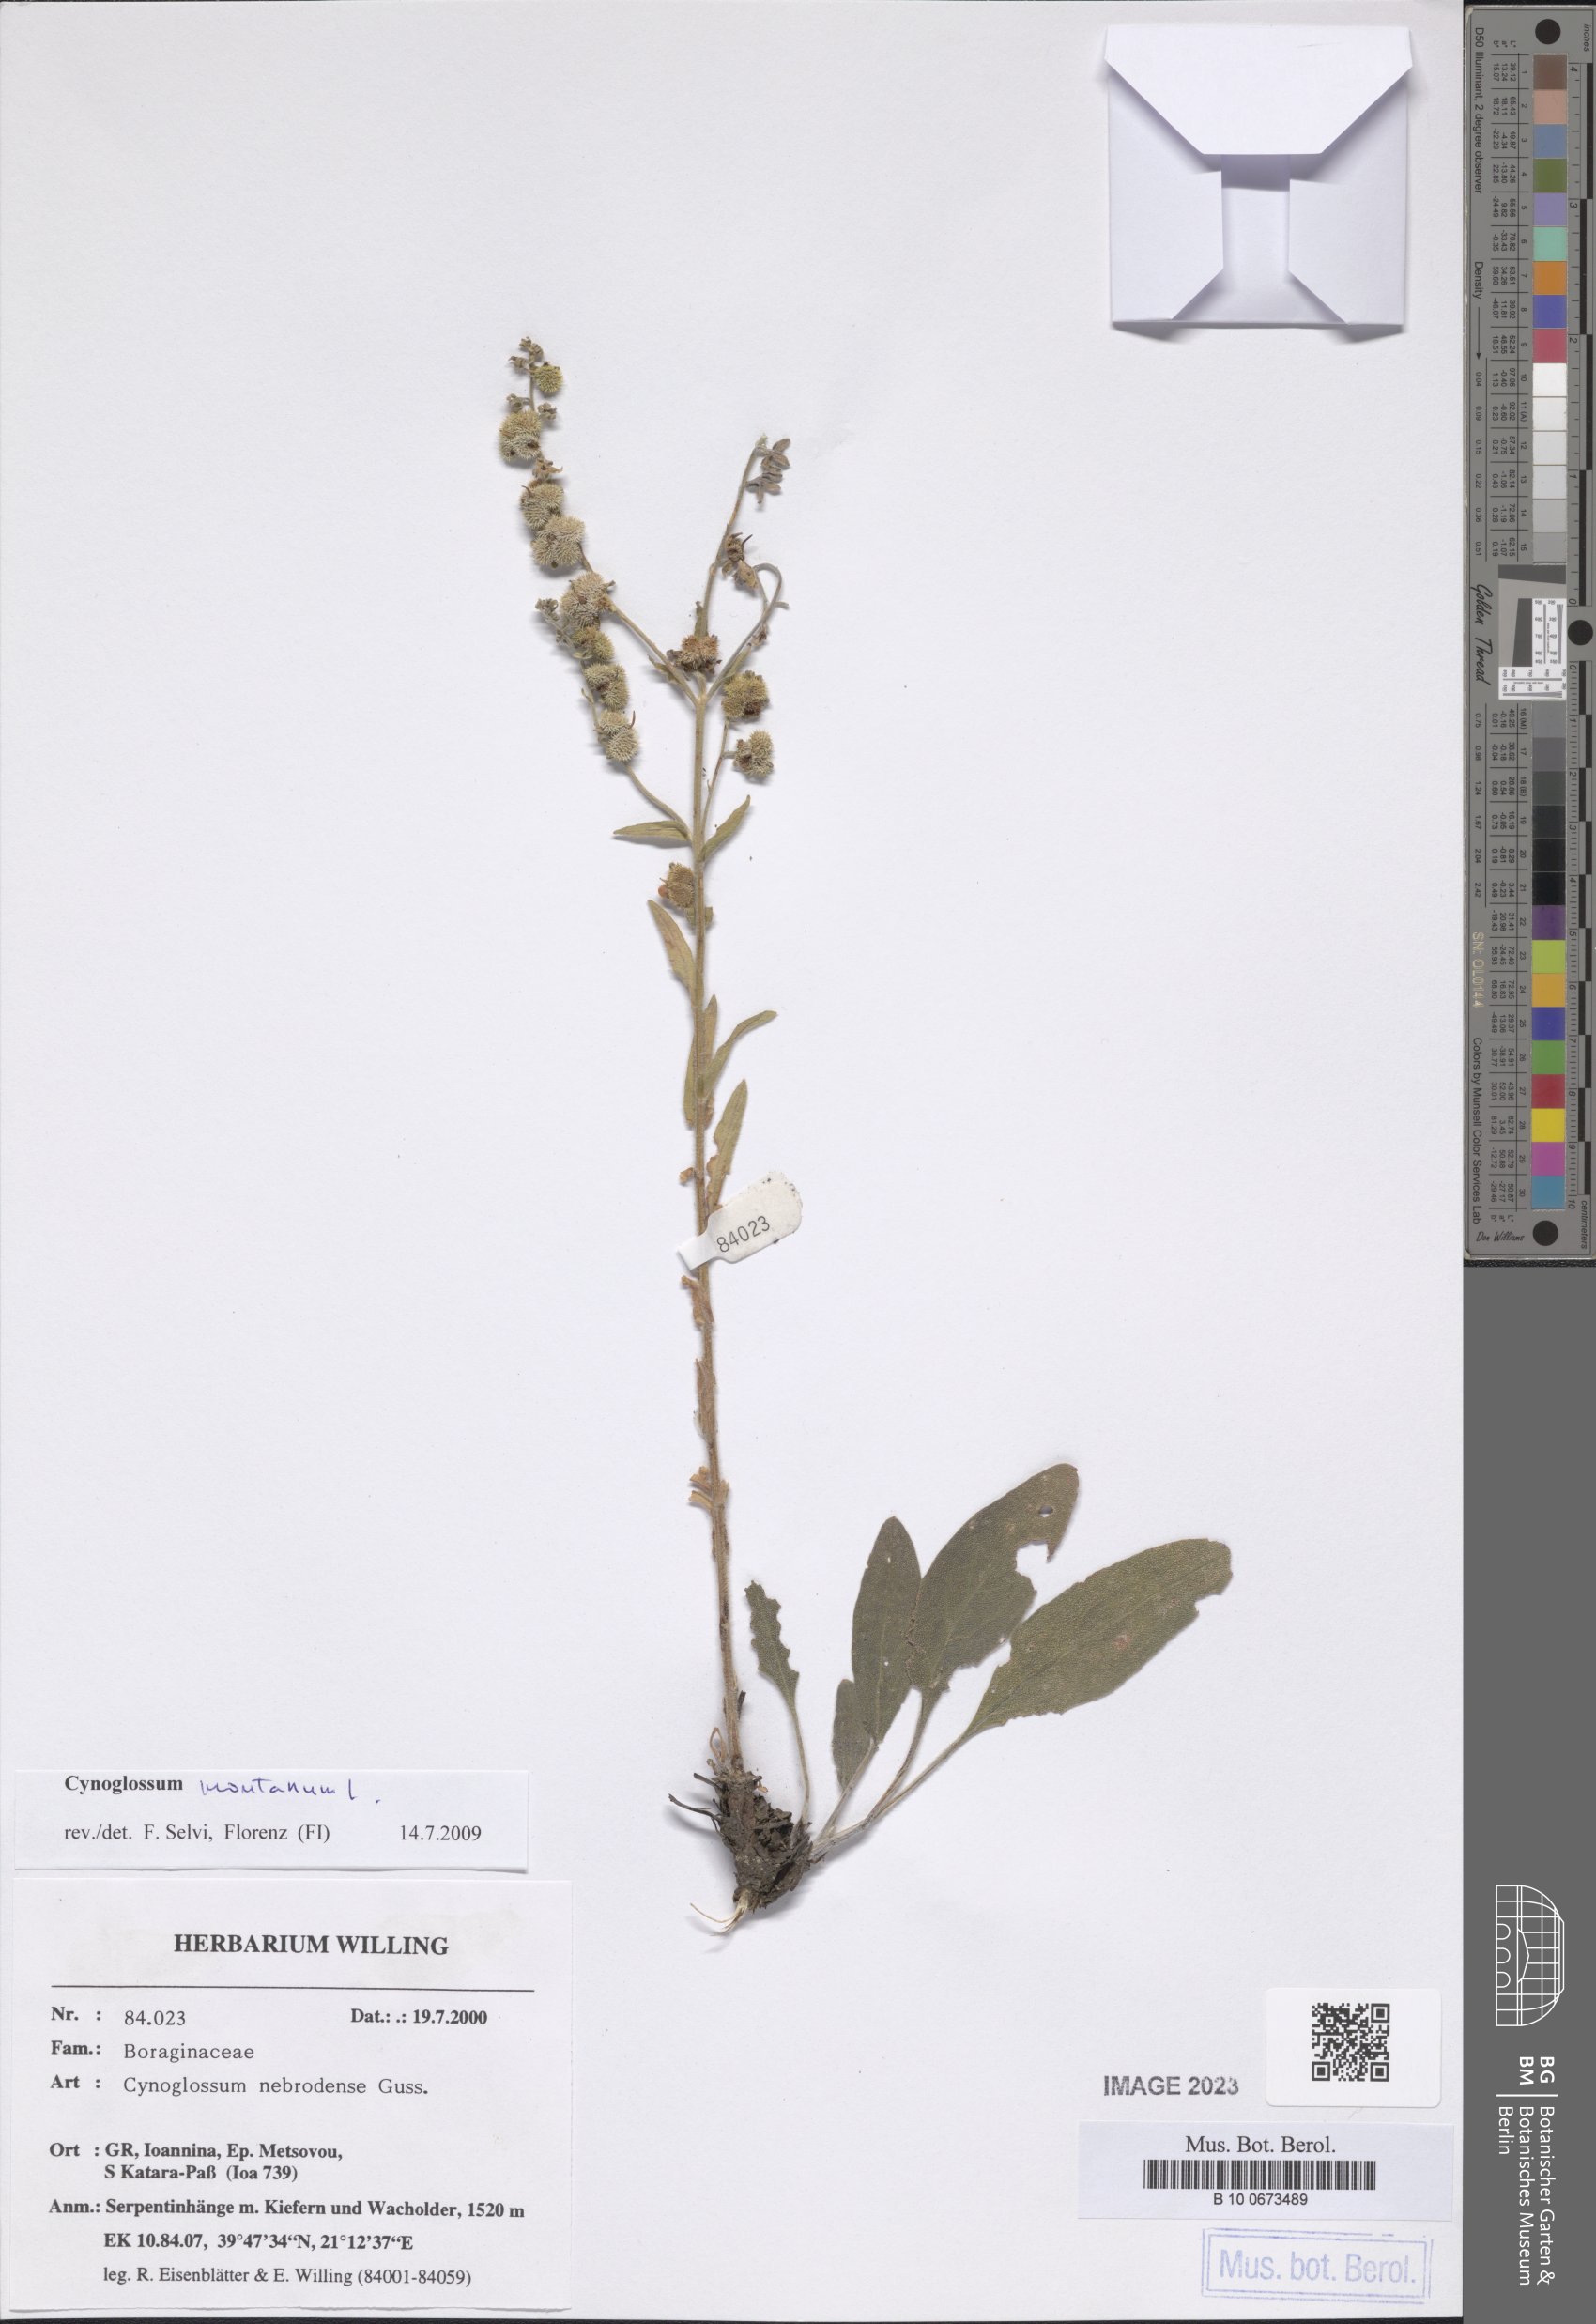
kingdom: Plantae
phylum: Tracheophyta
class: Magnoliopsida
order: Boraginales
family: Boraginaceae
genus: Cynoglossum
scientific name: Cynoglossum montanum
